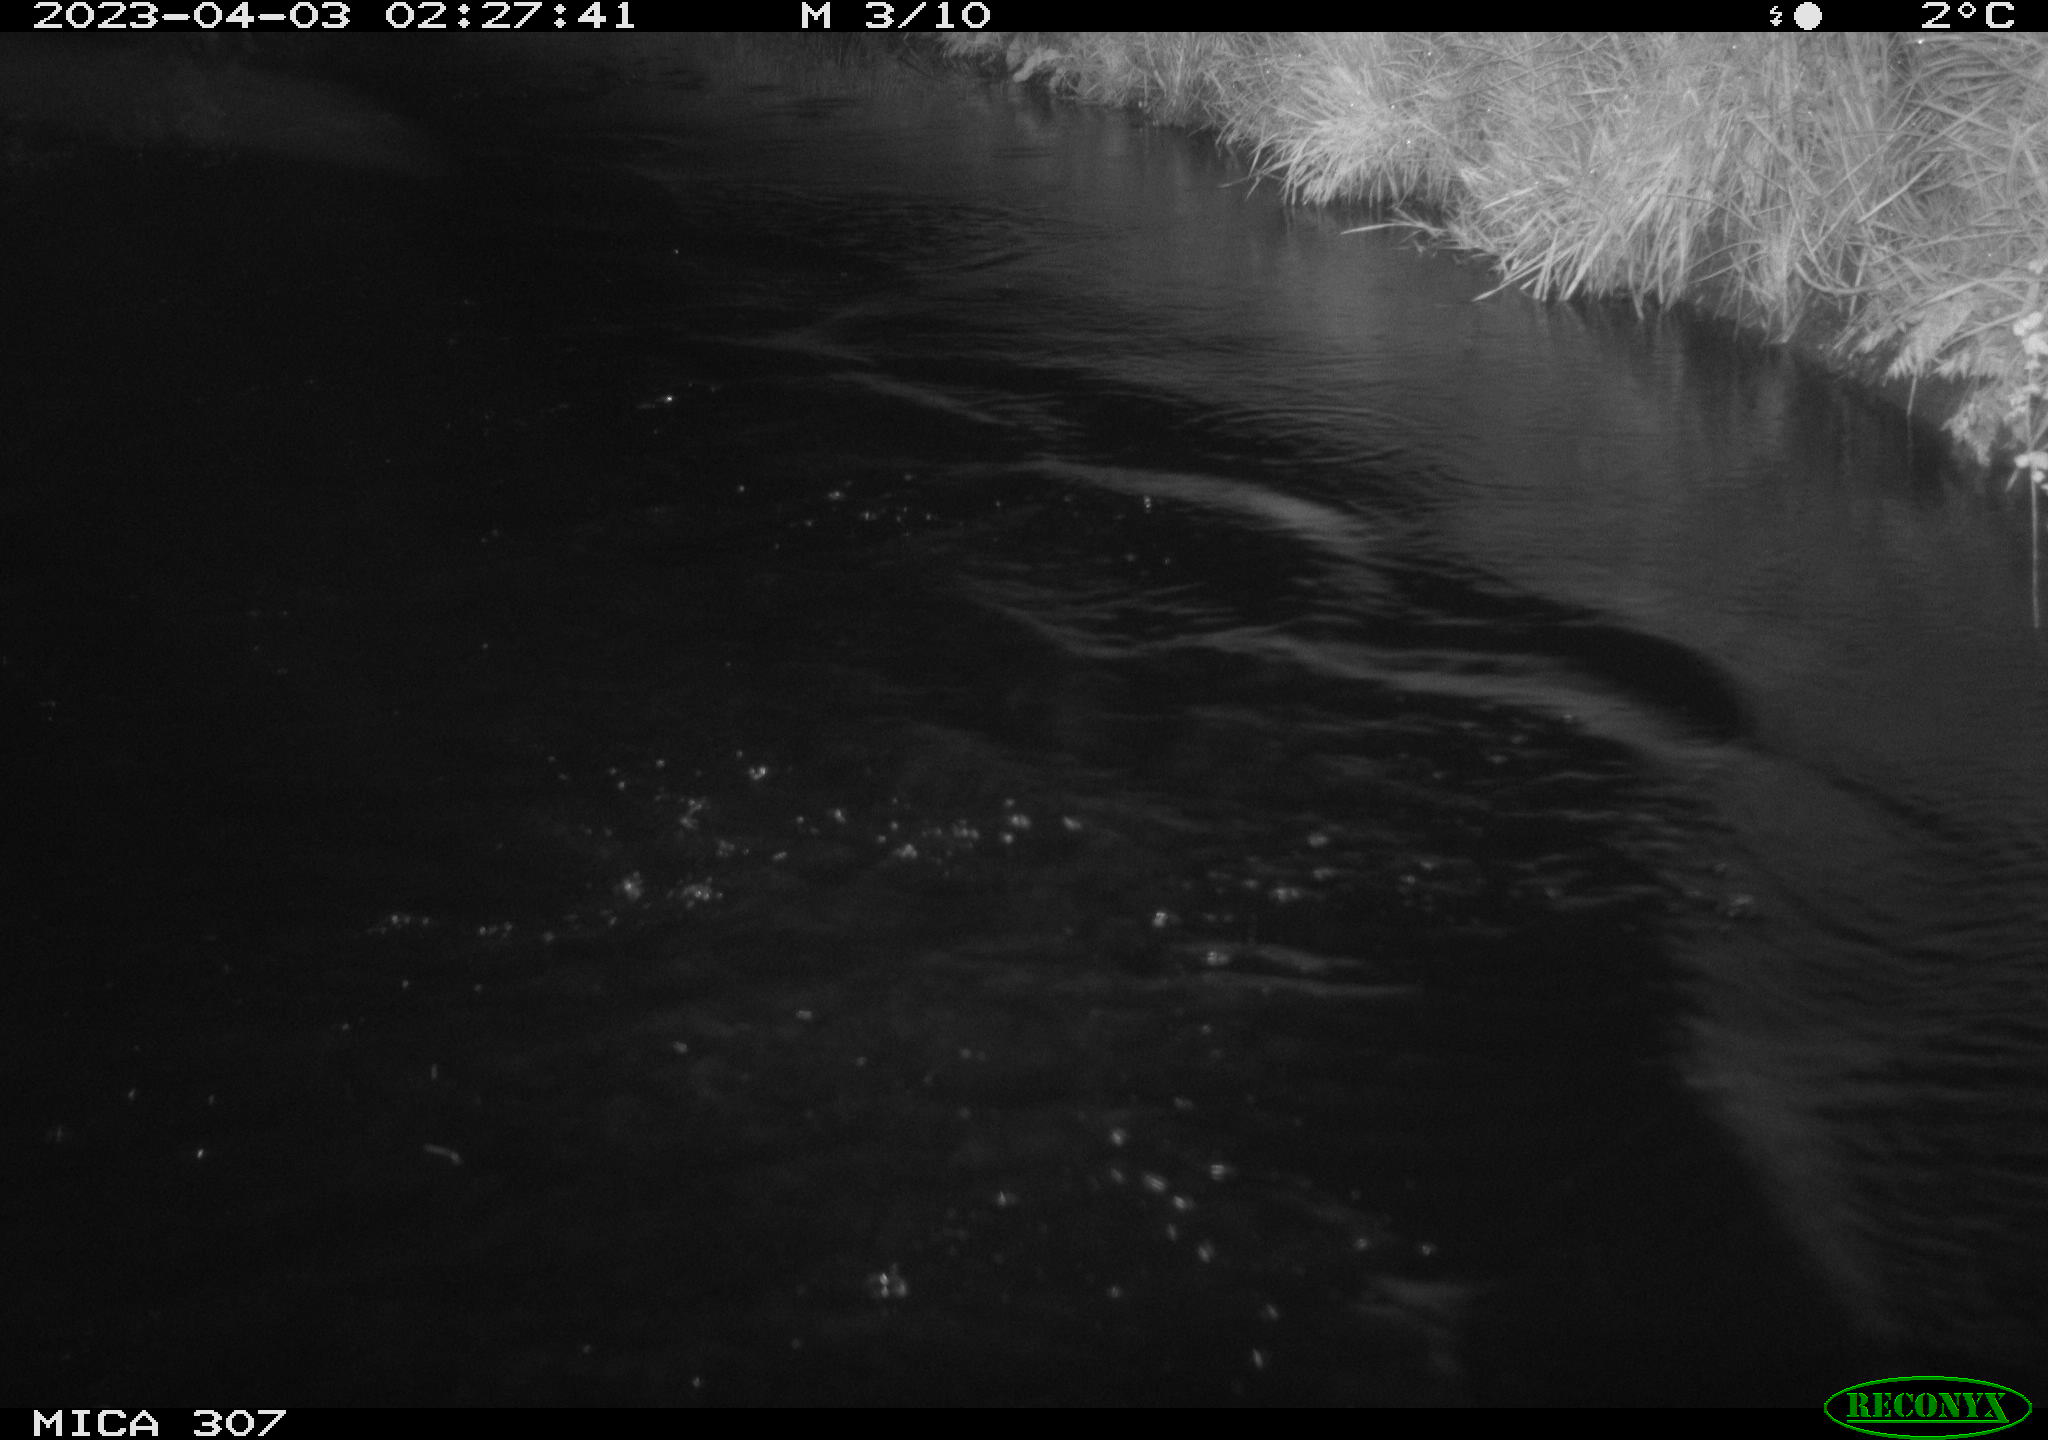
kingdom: Animalia
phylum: Chordata
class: Mammalia
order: Rodentia
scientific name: Rodentia
